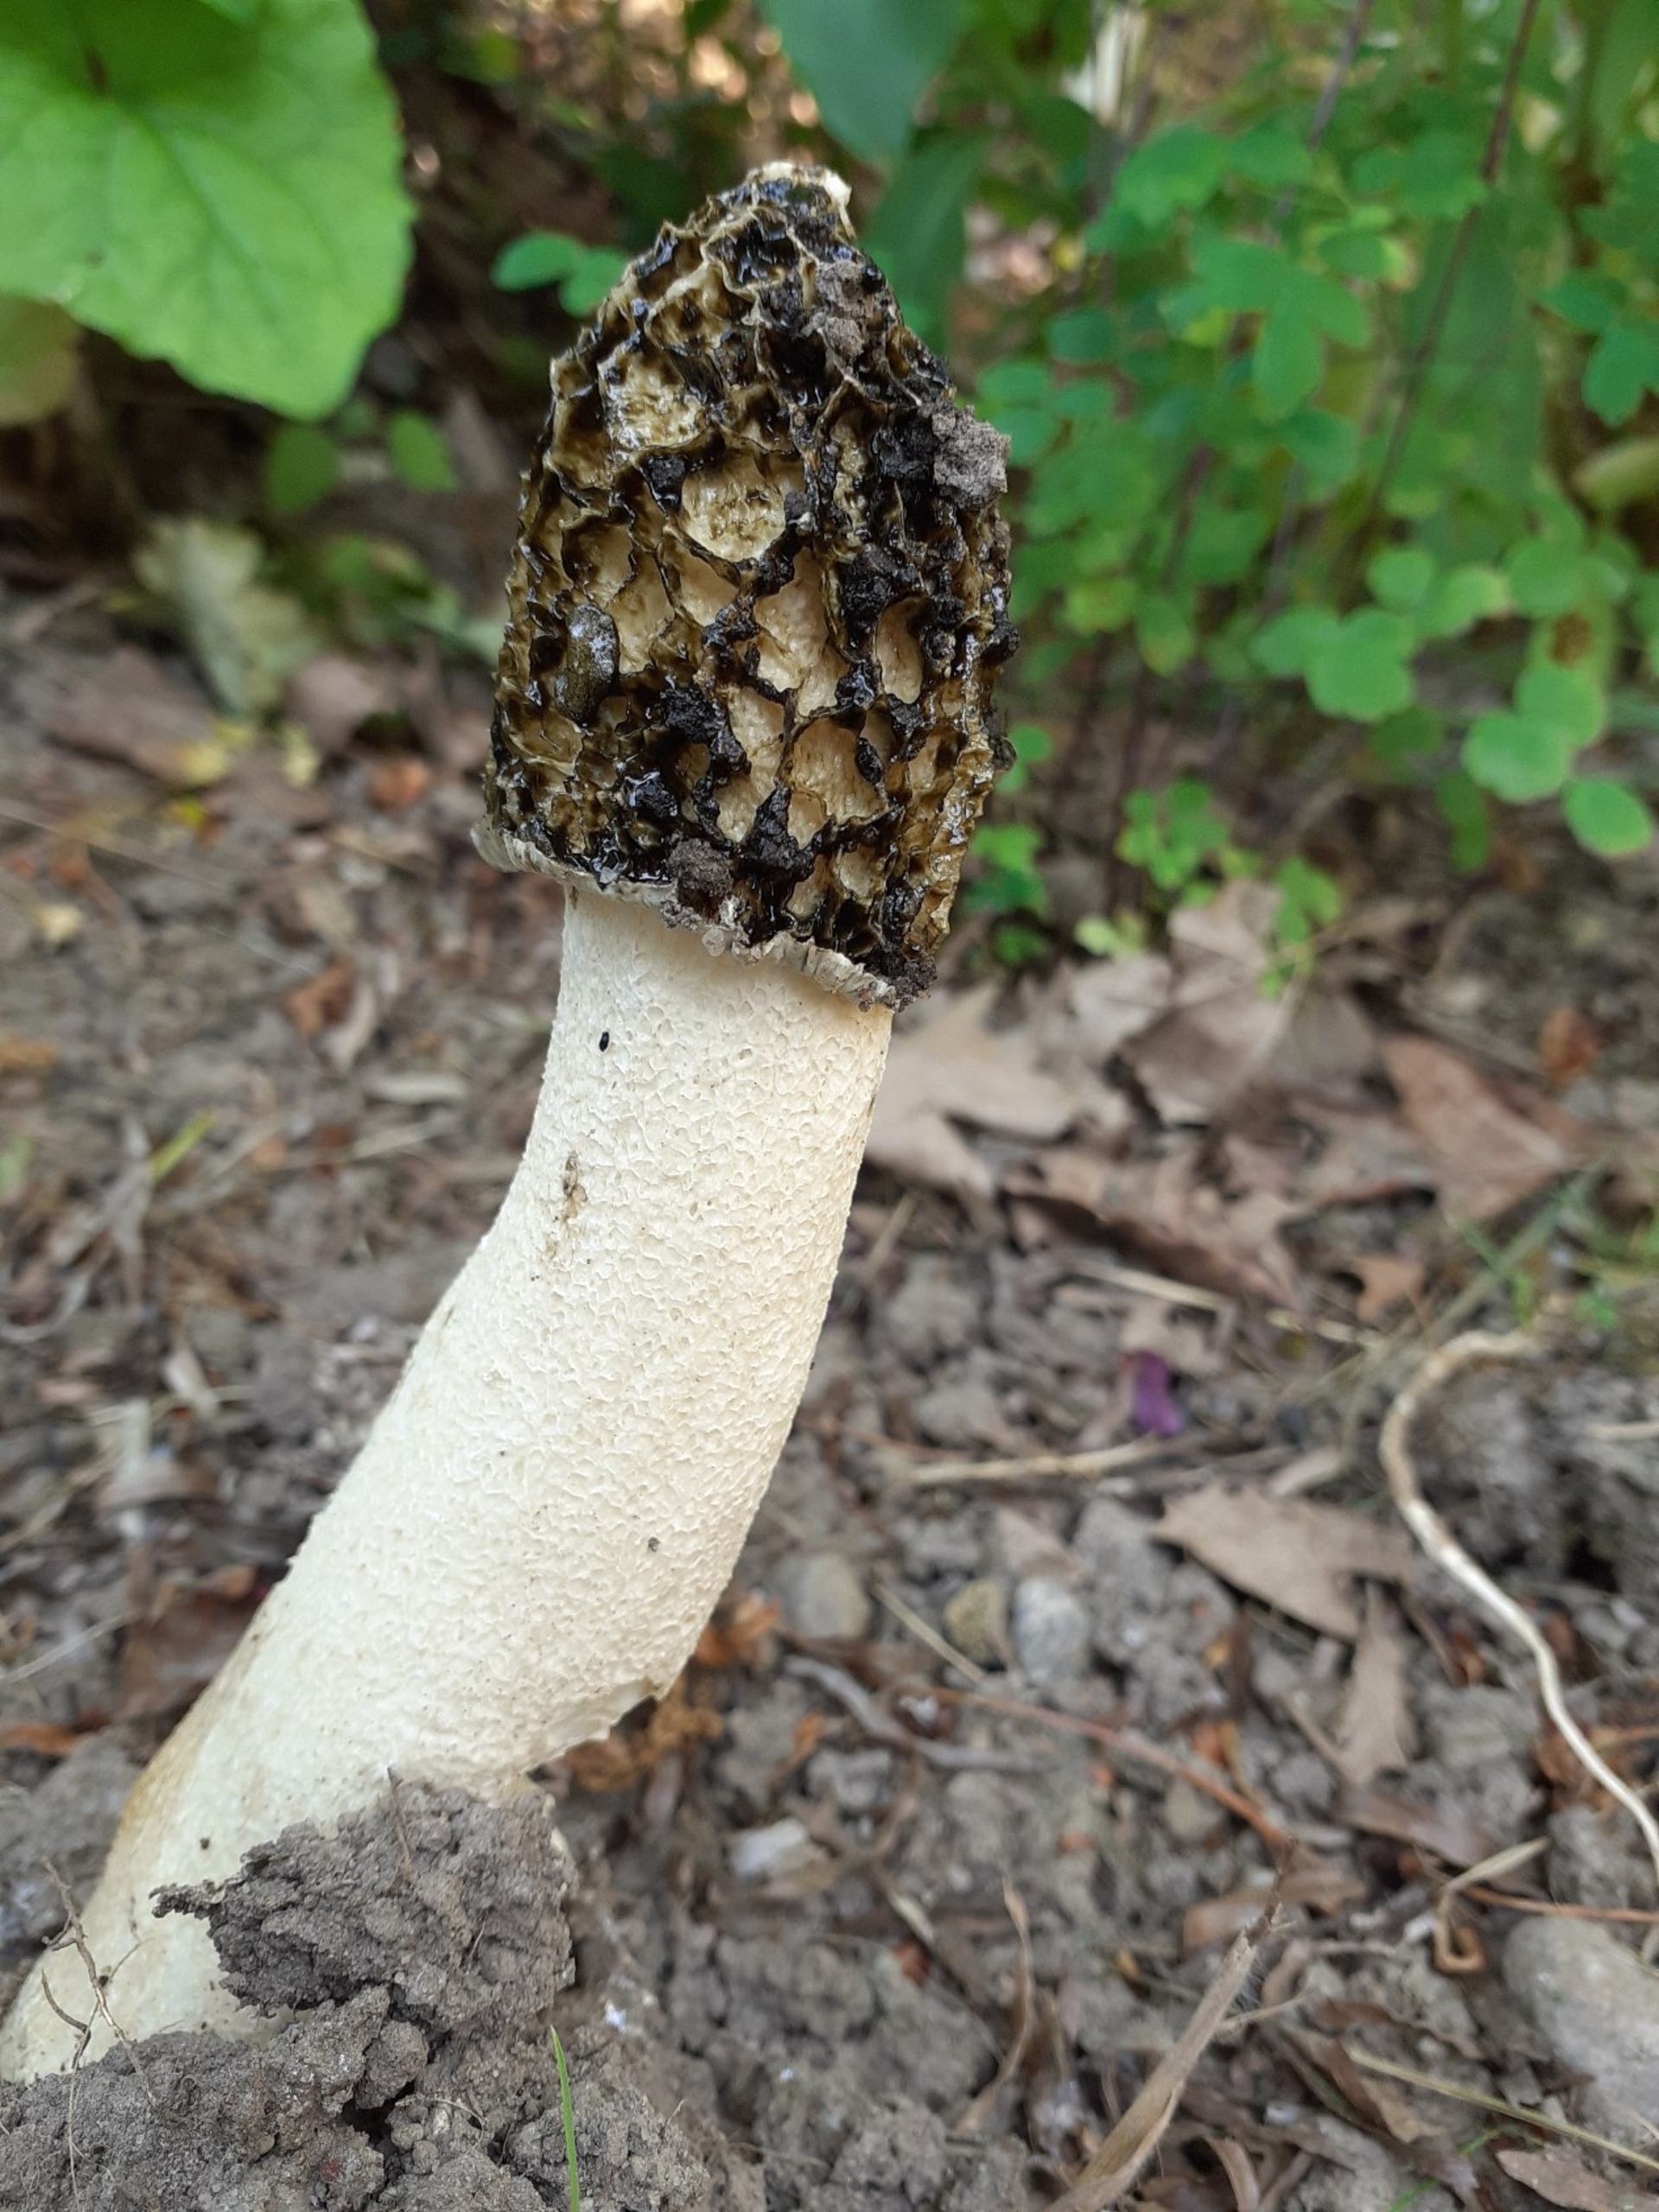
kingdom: Fungi
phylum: Basidiomycota
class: Agaricomycetes
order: Phallales
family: Phallaceae
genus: Phallus
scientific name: Phallus impudicus
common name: Almindelig stinksvamp
